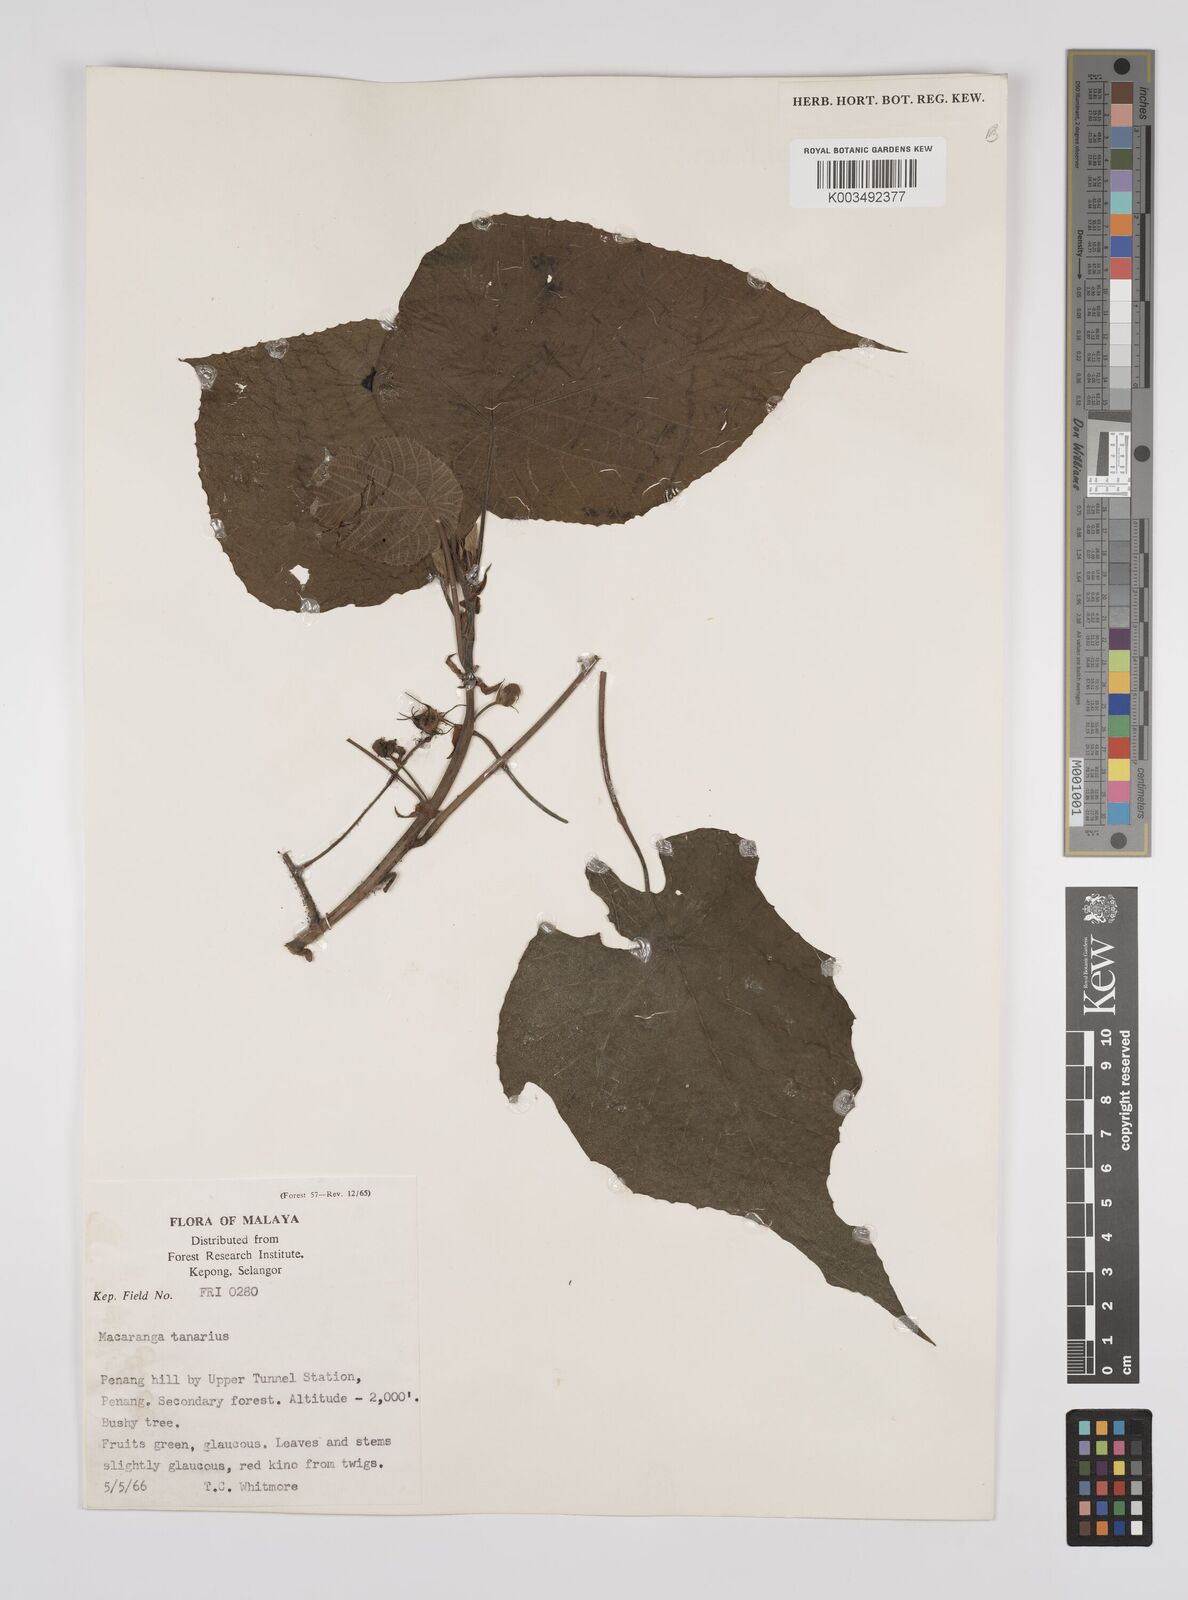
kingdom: Plantae
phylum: Tracheophyta
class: Magnoliopsida
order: Malpighiales
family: Euphorbiaceae
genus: Macaranga
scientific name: Macaranga tanarius
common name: Parasol leaf tree
